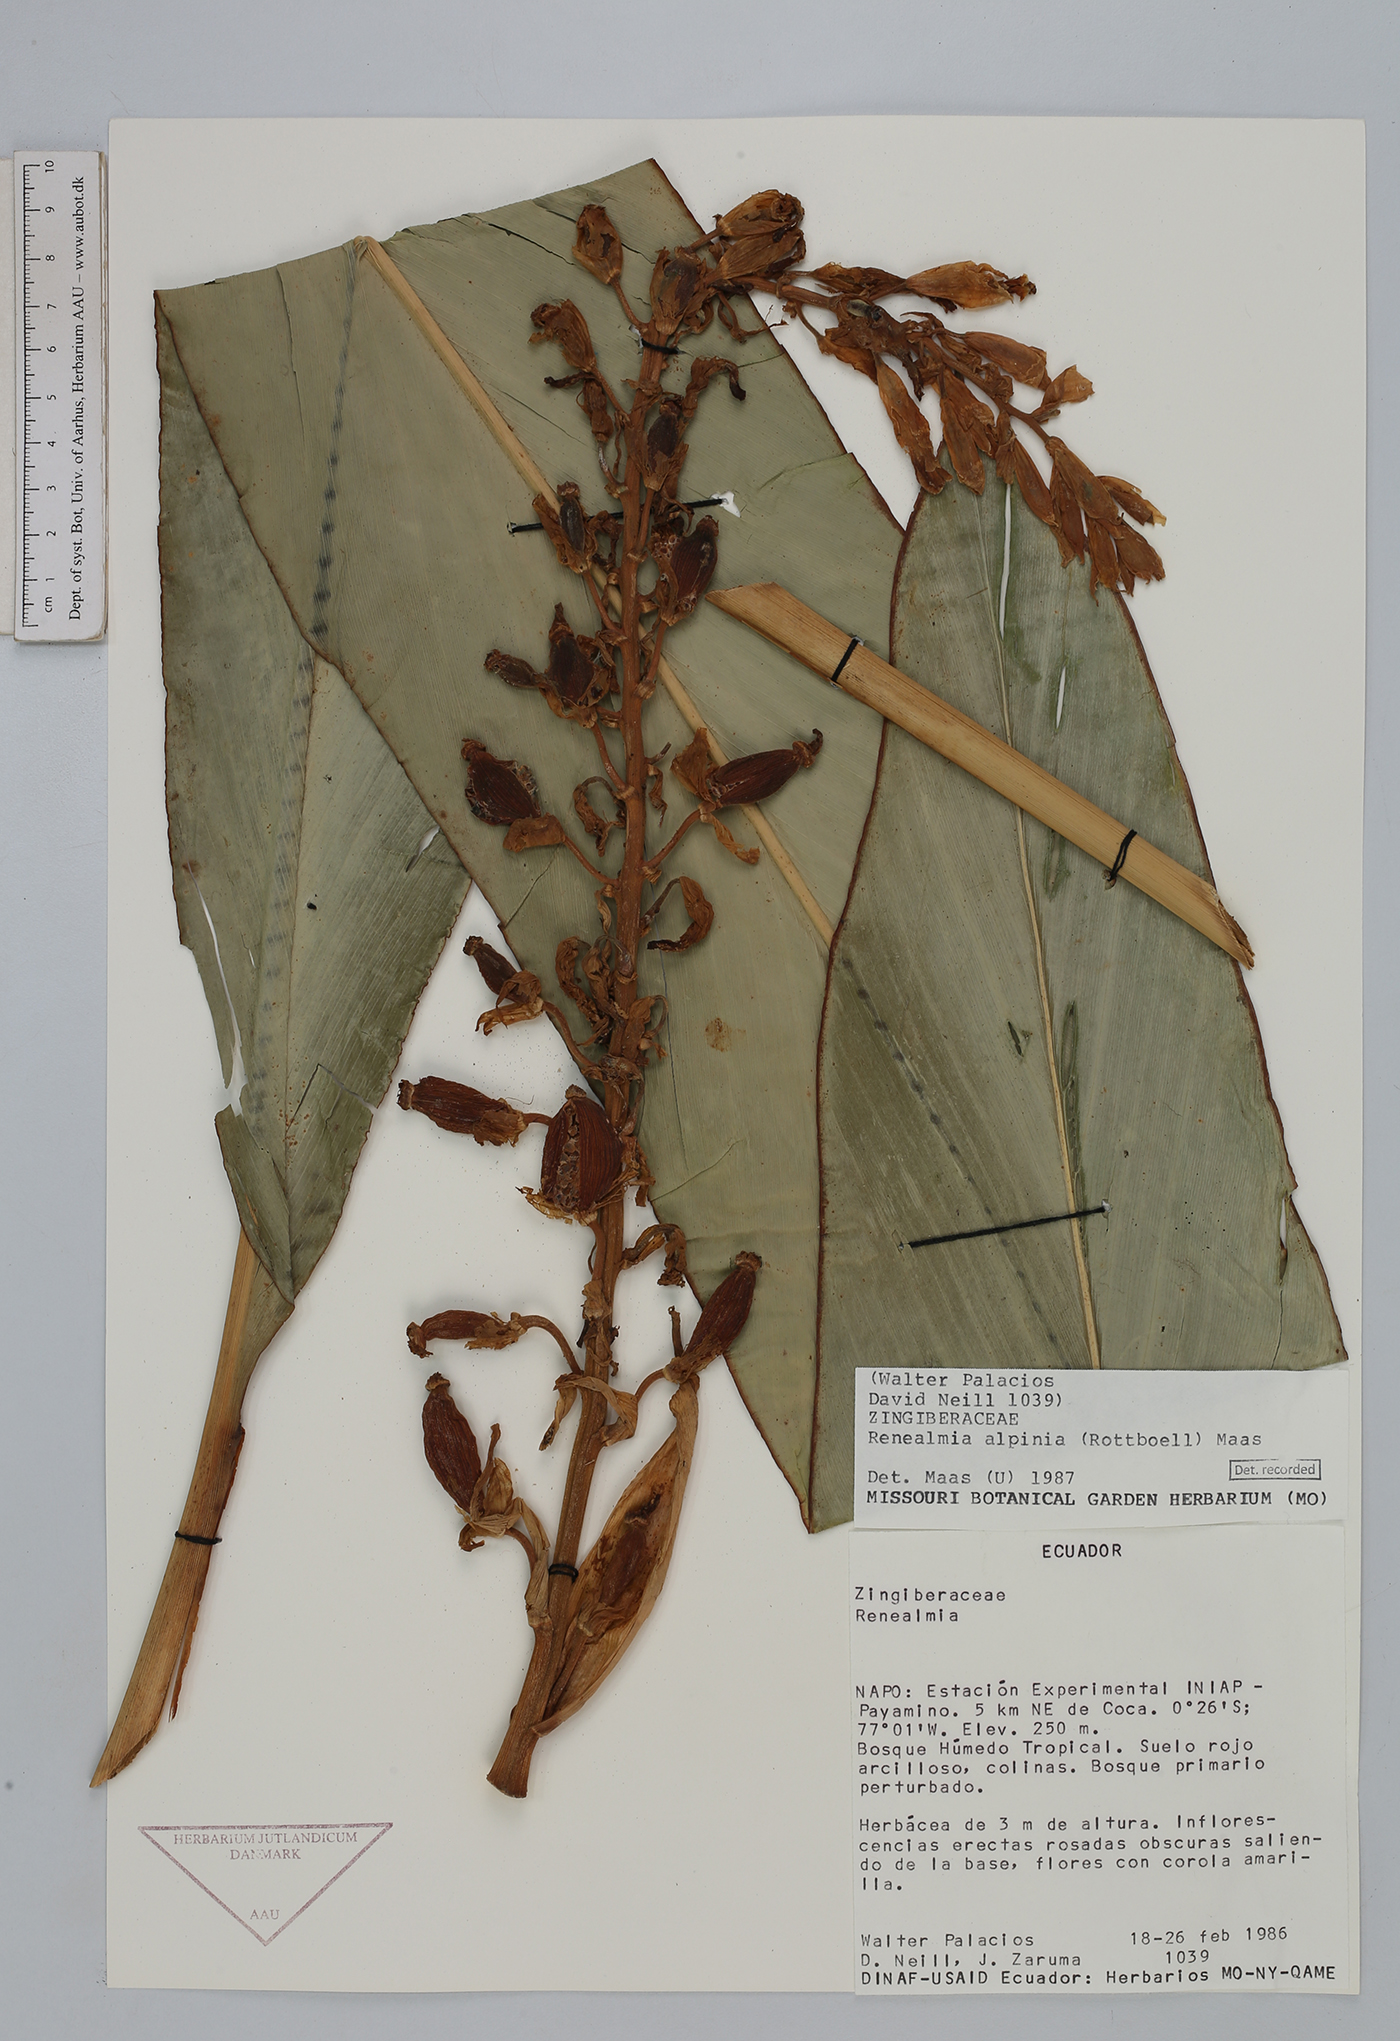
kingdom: Plantae
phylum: Tracheophyta
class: Liliopsida
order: Zingiberales
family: Zingiberaceae
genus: Renealmia
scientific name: Renealmia alpinia
